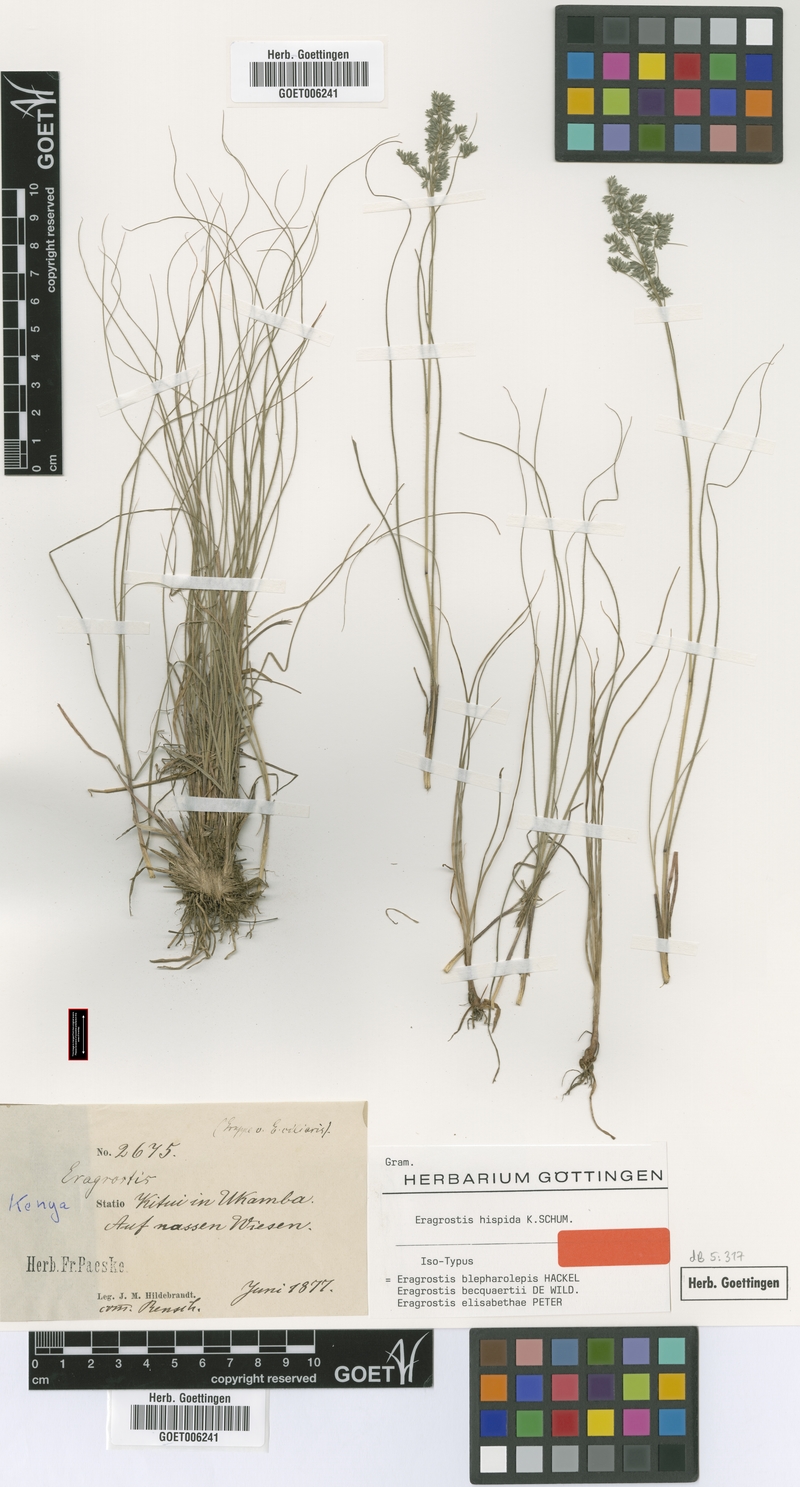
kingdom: Plantae
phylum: Tracheophyta
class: Liliopsida
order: Poales
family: Poaceae
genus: Eragrostis
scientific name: Eragrostis hispida
